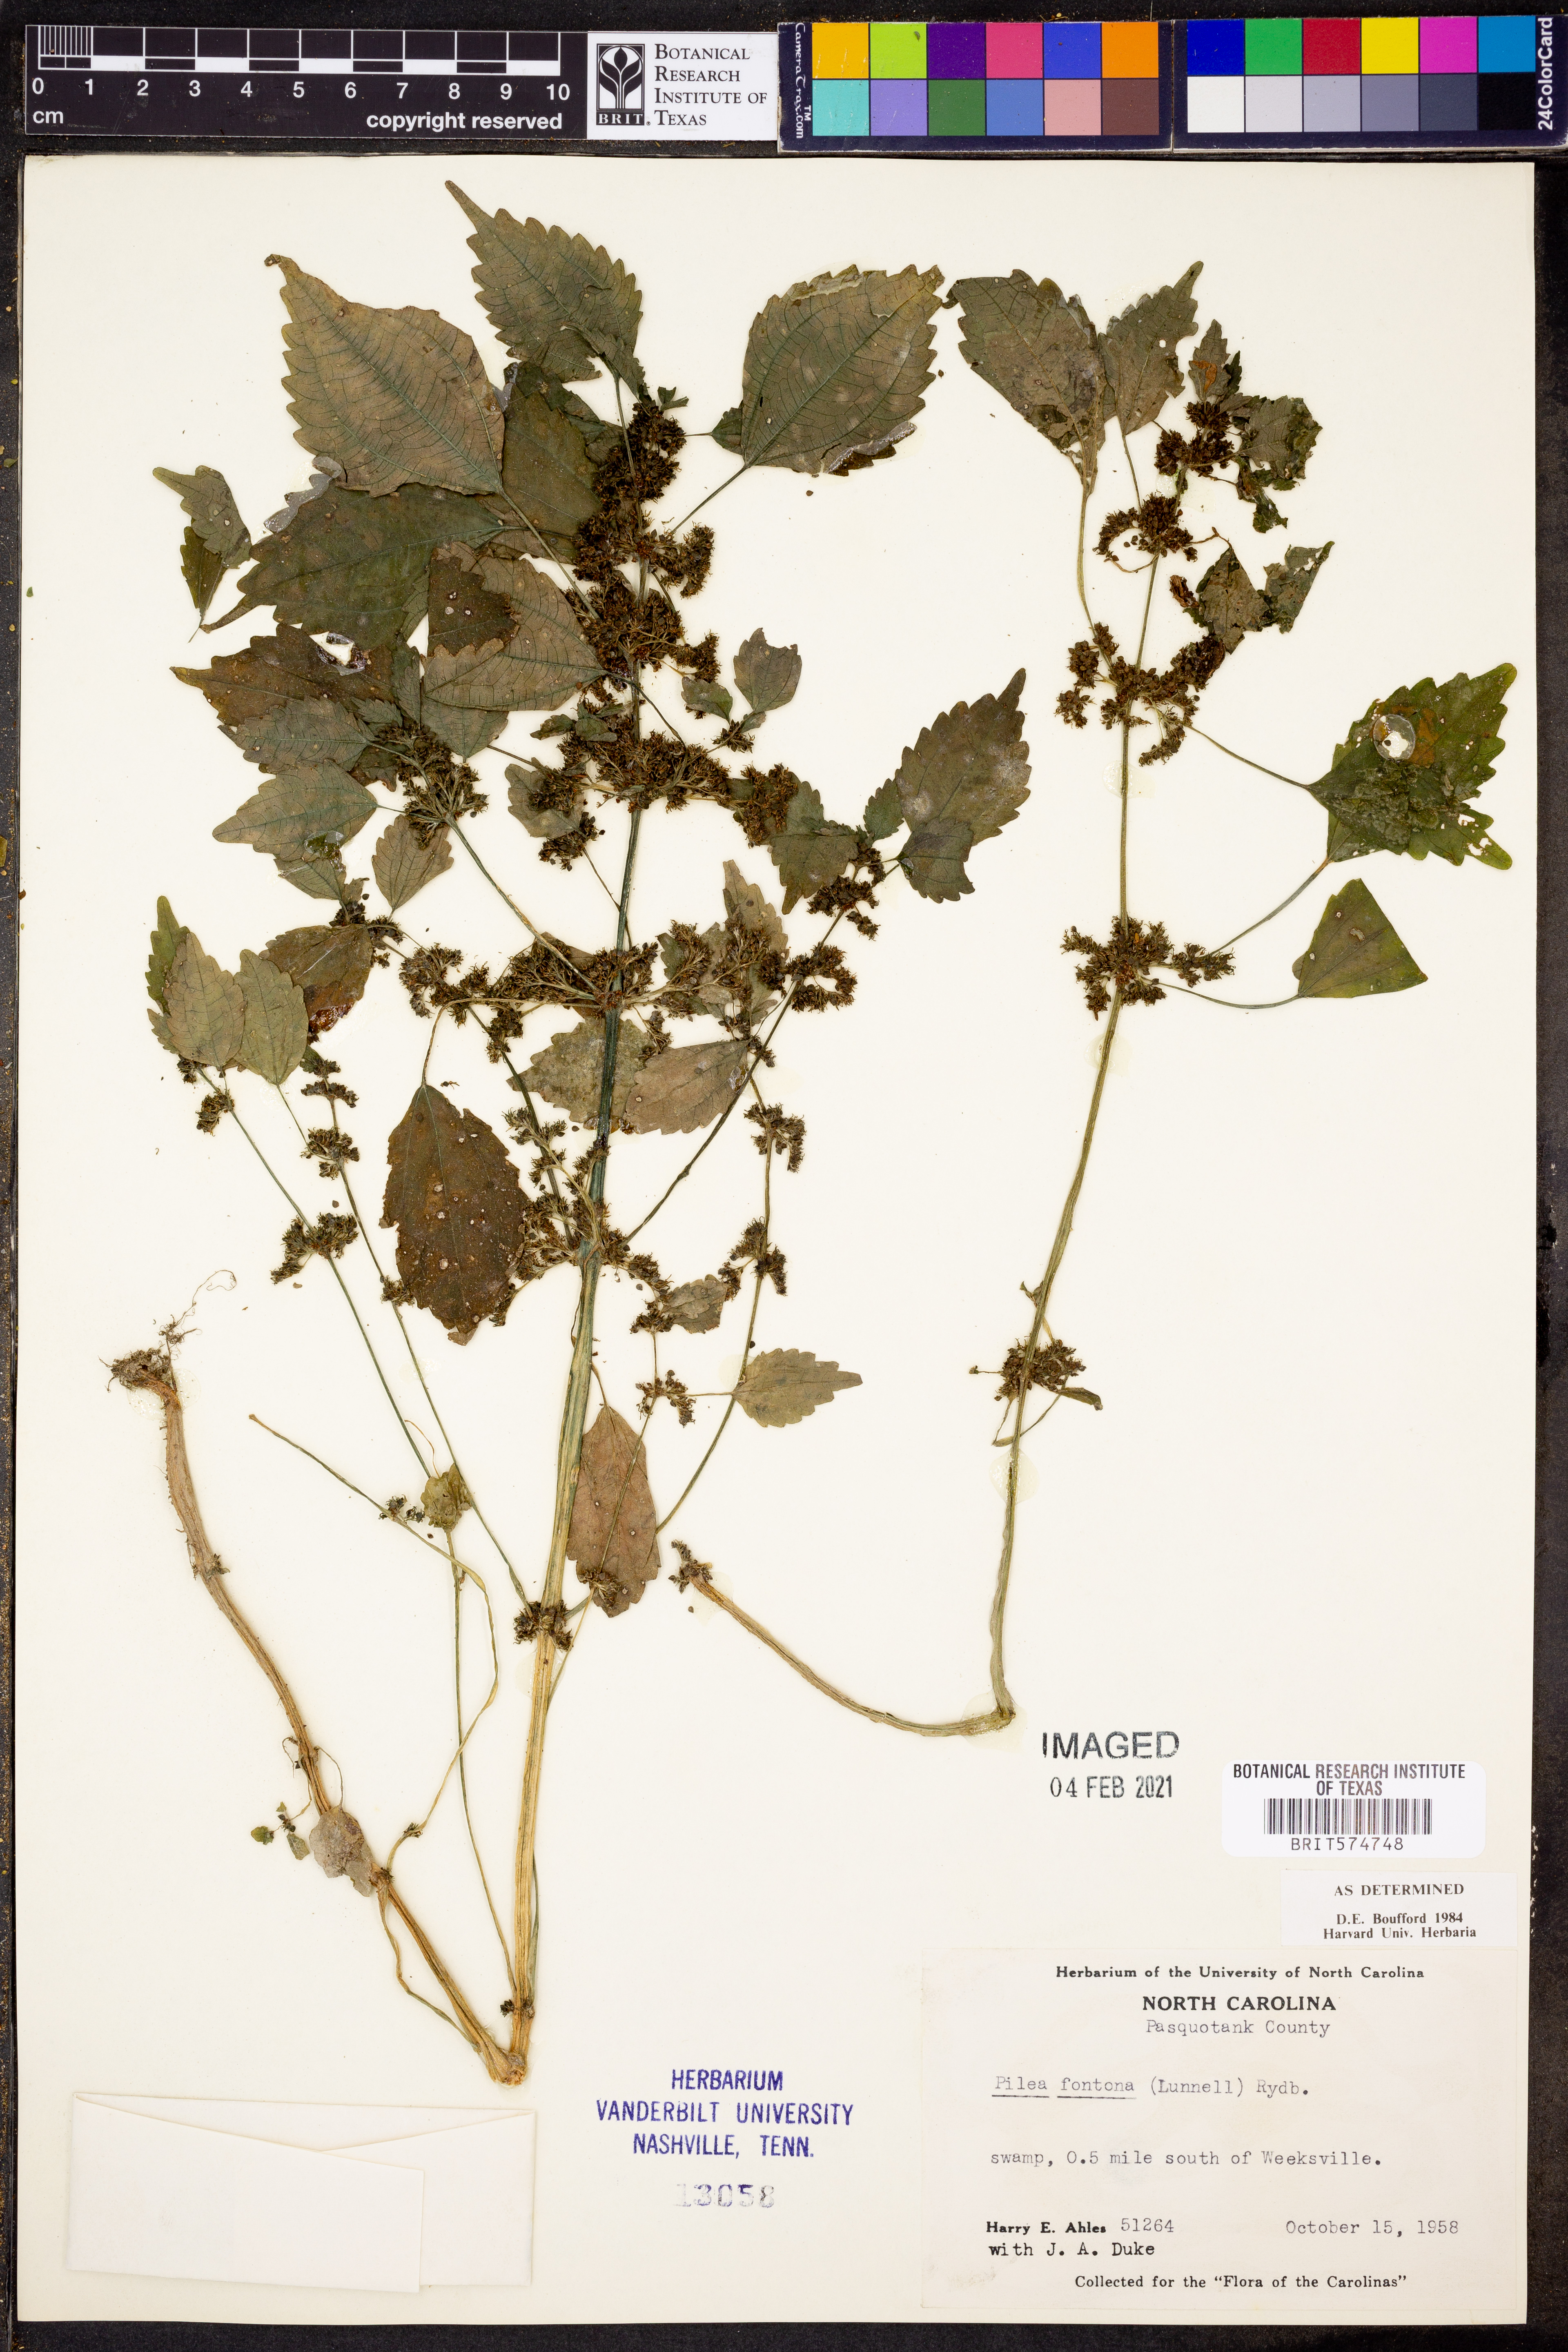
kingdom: Plantae
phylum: Tracheophyta
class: Magnoliopsida
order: Rosales
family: Urticaceae
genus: Pilea
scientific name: Pilea fontana
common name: Clearweed
